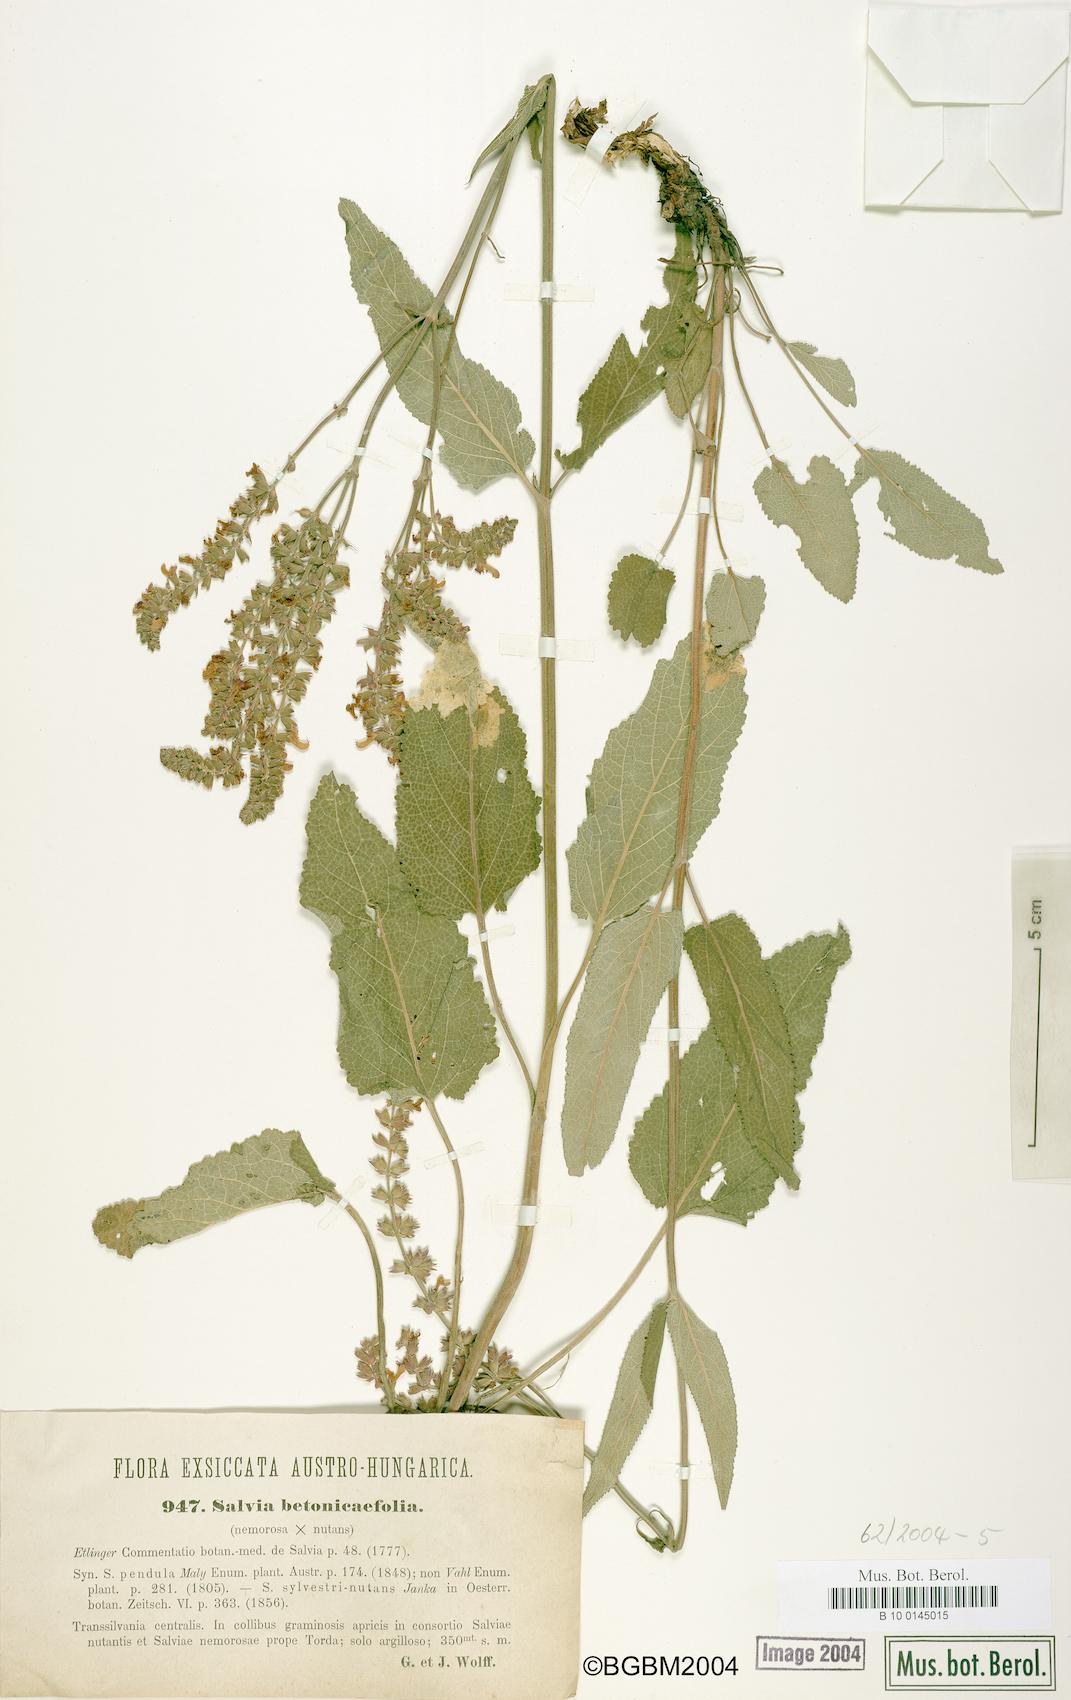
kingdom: Plantae
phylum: Tracheophyta
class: Magnoliopsida
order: Lamiales
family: Lamiaceae
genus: Salvia
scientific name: Salvia
